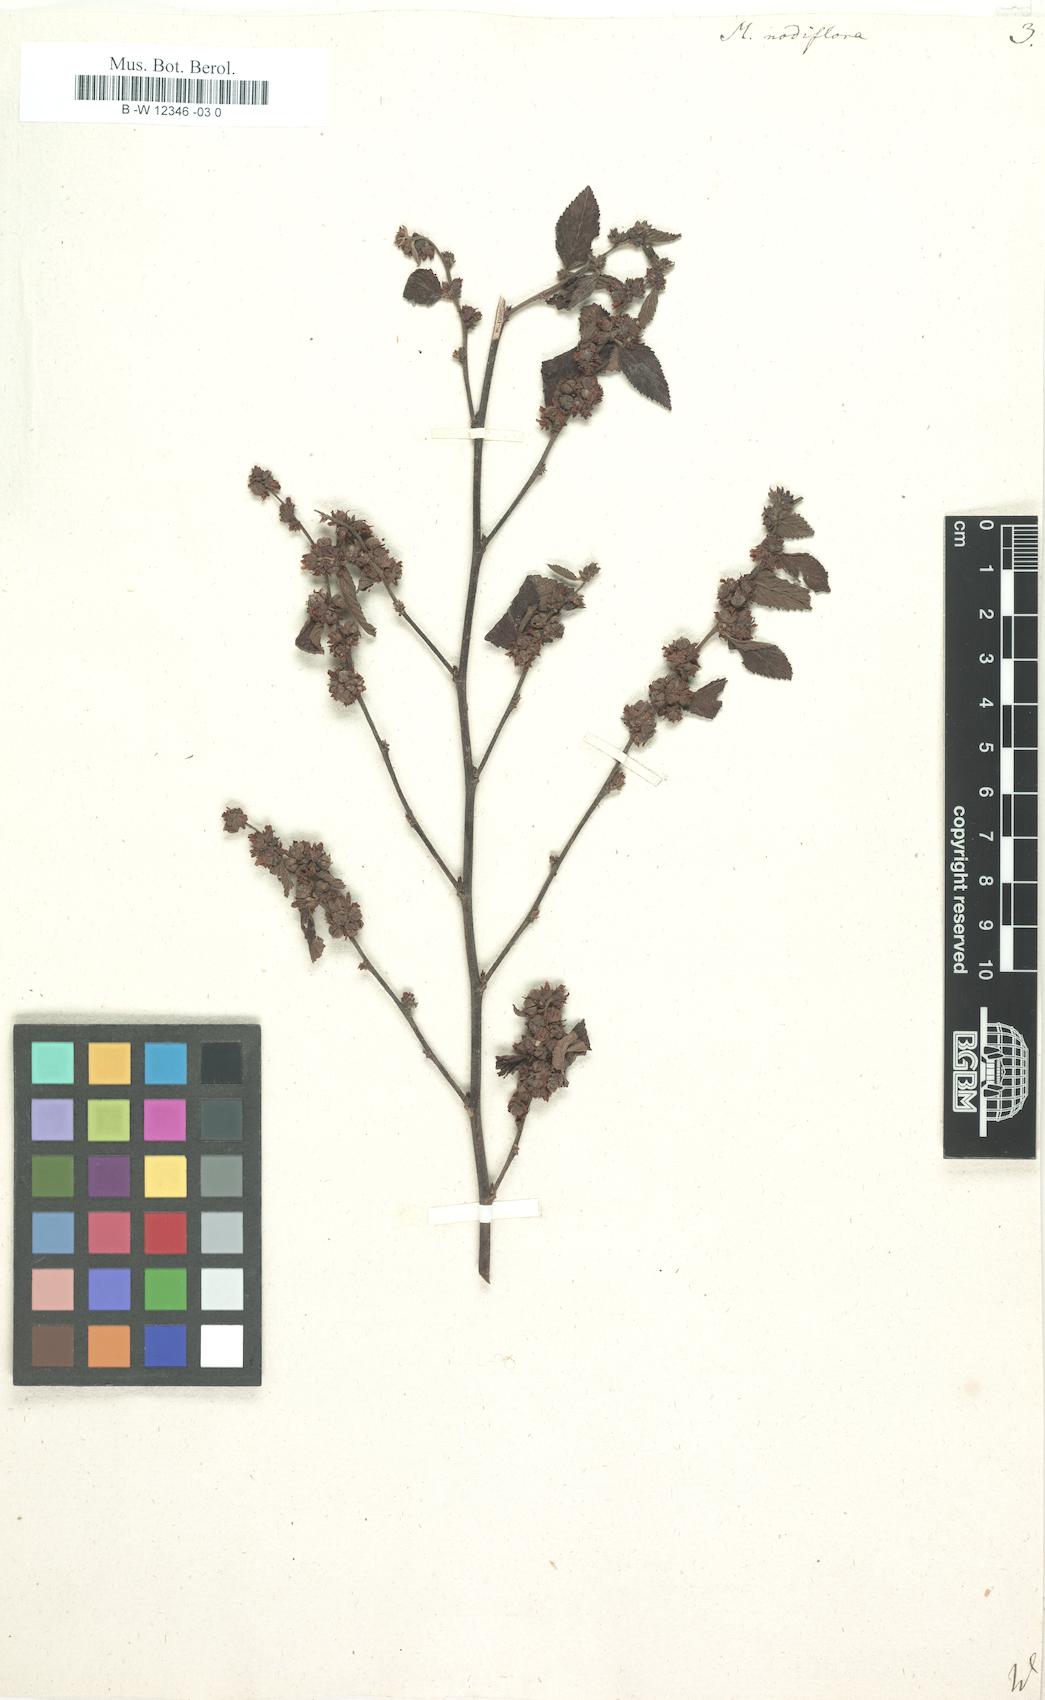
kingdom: Plantae
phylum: Tracheophyta
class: Magnoliopsida
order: Malvales
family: Malvaceae
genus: Melochia
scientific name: Melochia nodiflora
